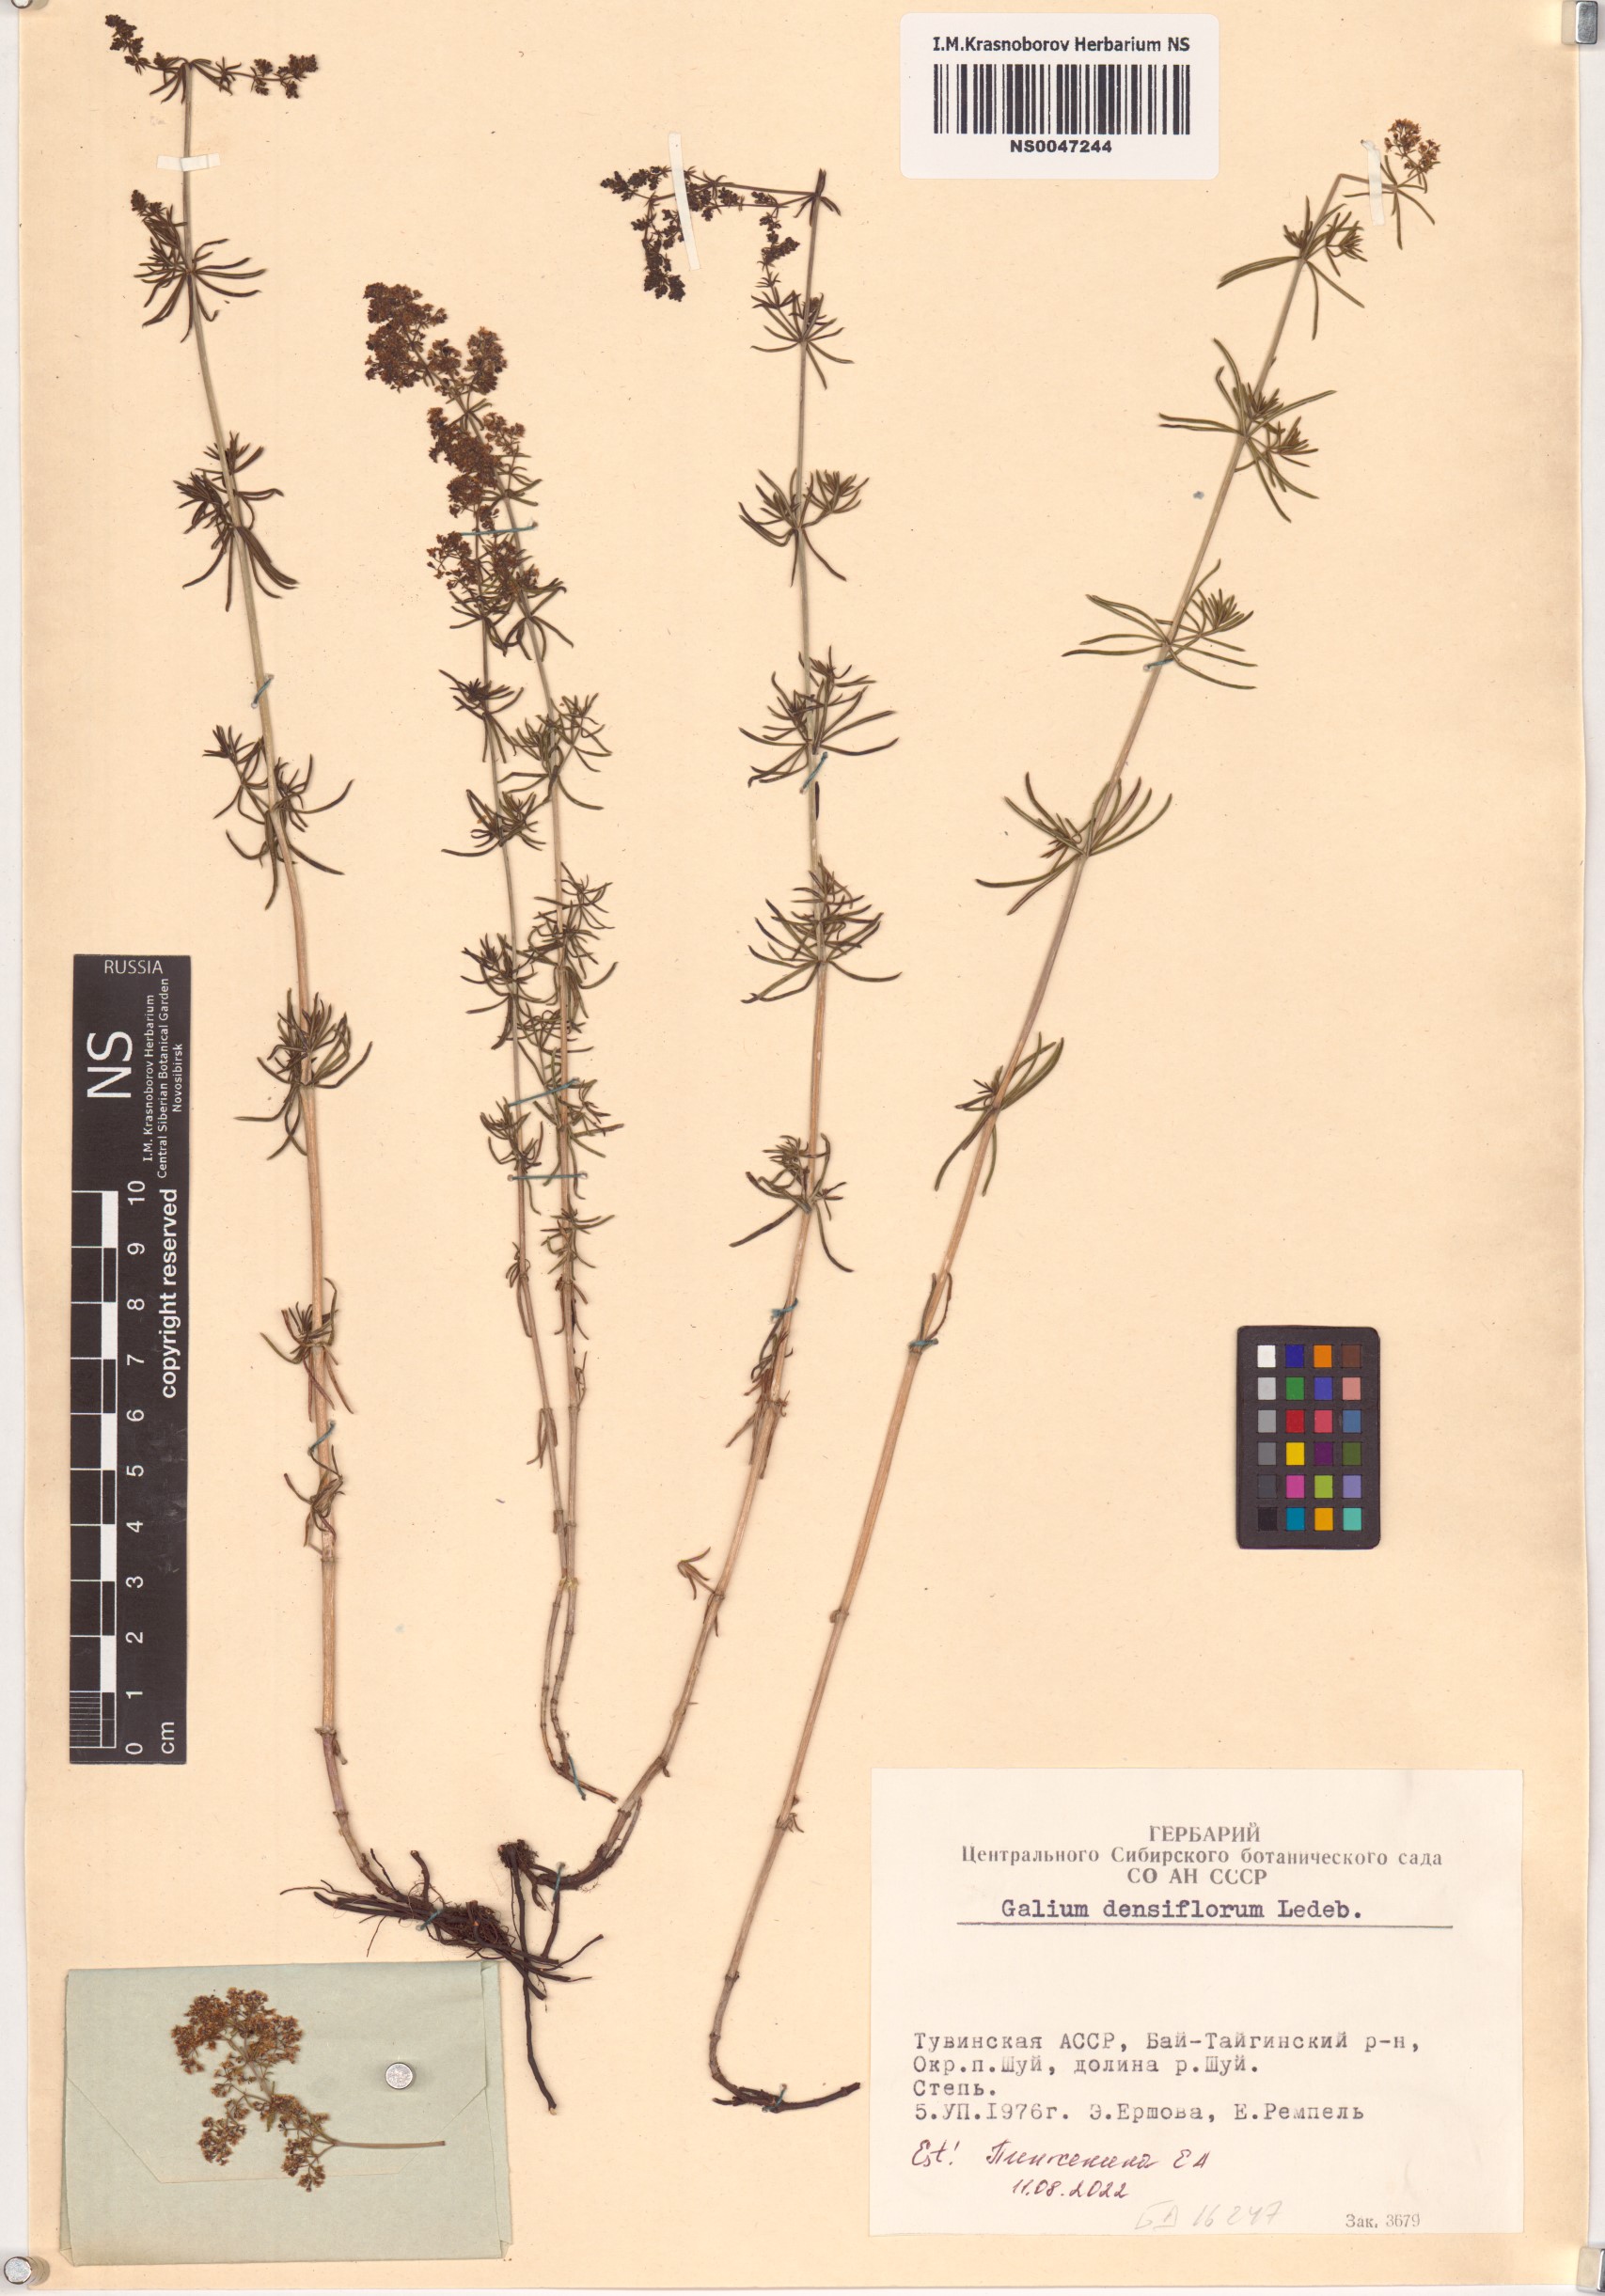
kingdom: Plantae
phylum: Tracheophyta
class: Magnoliopsida
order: Gentianales
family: Rubiaceae
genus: Galium
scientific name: Galium densiflorum
